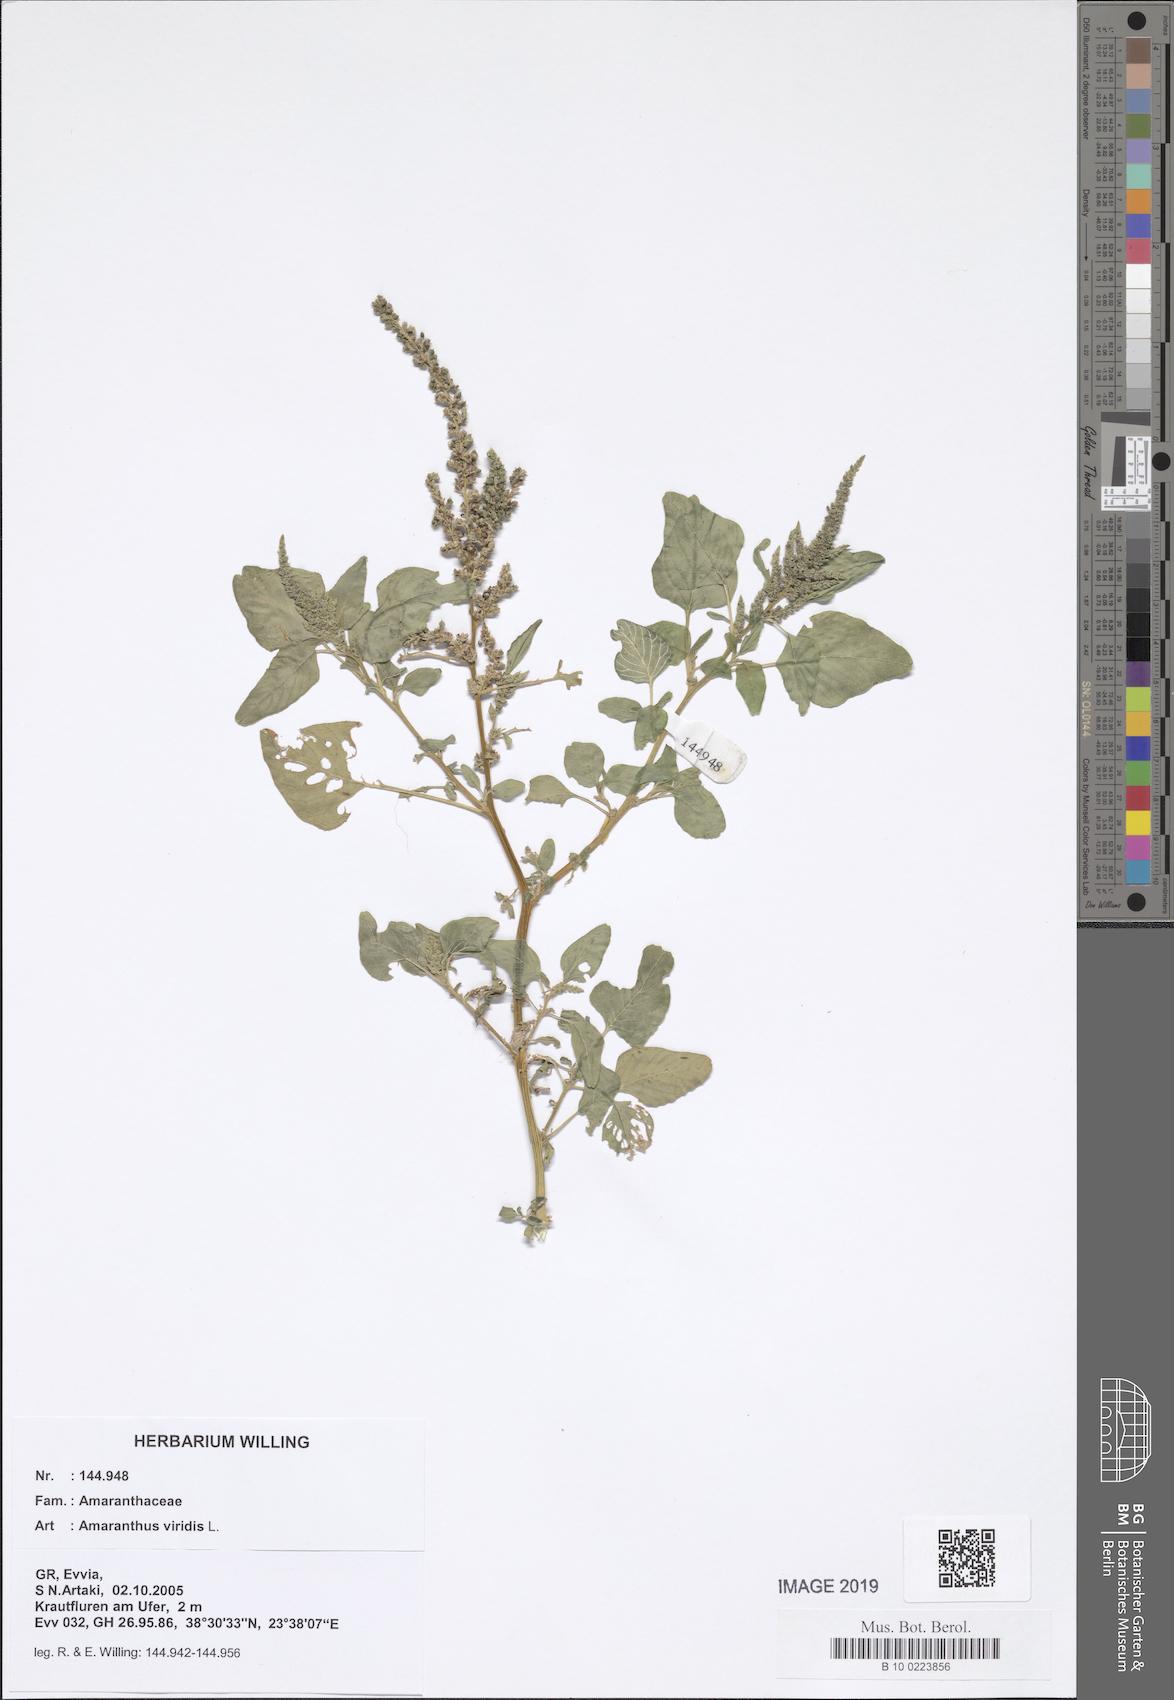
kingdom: Plantae
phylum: Tracheophyta
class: Magnoliopsida
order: Caryophyllales
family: Amaranthaceae
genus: Amaranthus
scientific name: Amaranthus viridis
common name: Slender amaranth
